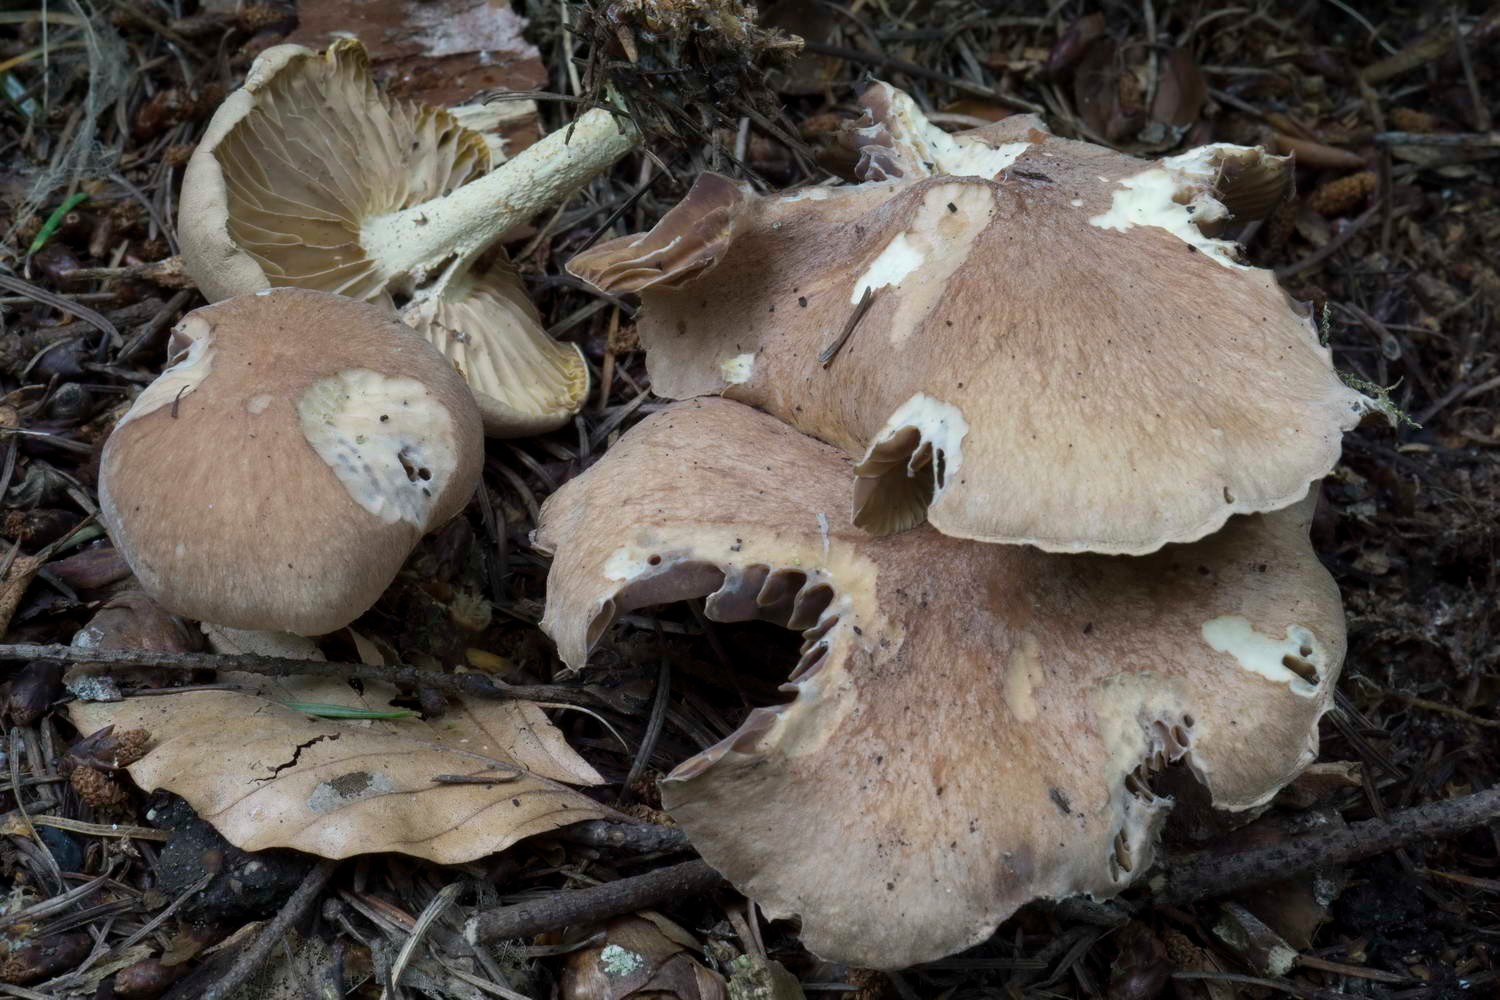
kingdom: Fungi
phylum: Basidiomycota
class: Agaricomycetes
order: Agaricales
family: Omphalotaceae
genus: Collybiopsis
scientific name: Collybiopsis peronata
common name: bestøvlet fladhat
